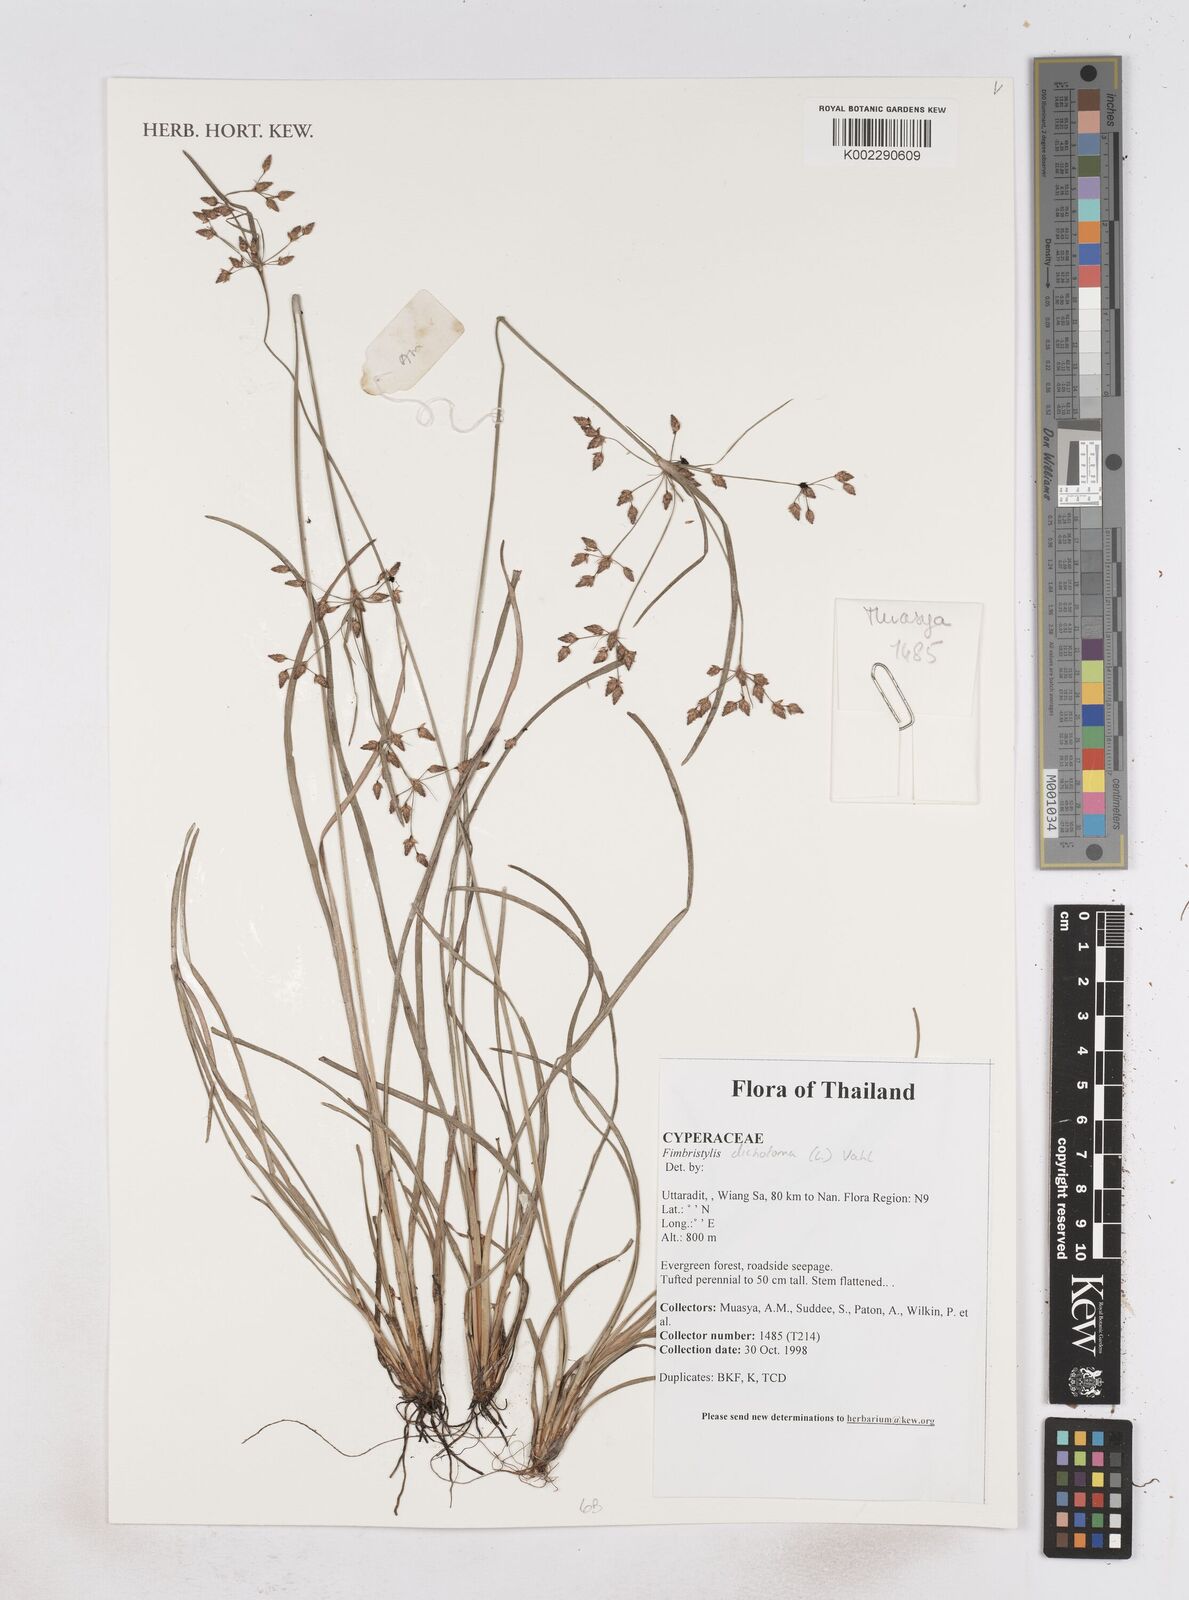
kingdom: Plantae
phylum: Tracheophyta
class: Liliopsida
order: Poales
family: Cyperaceae
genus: Fimbristylis
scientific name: Fimbristylis dichotoma
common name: Forked fimbry
